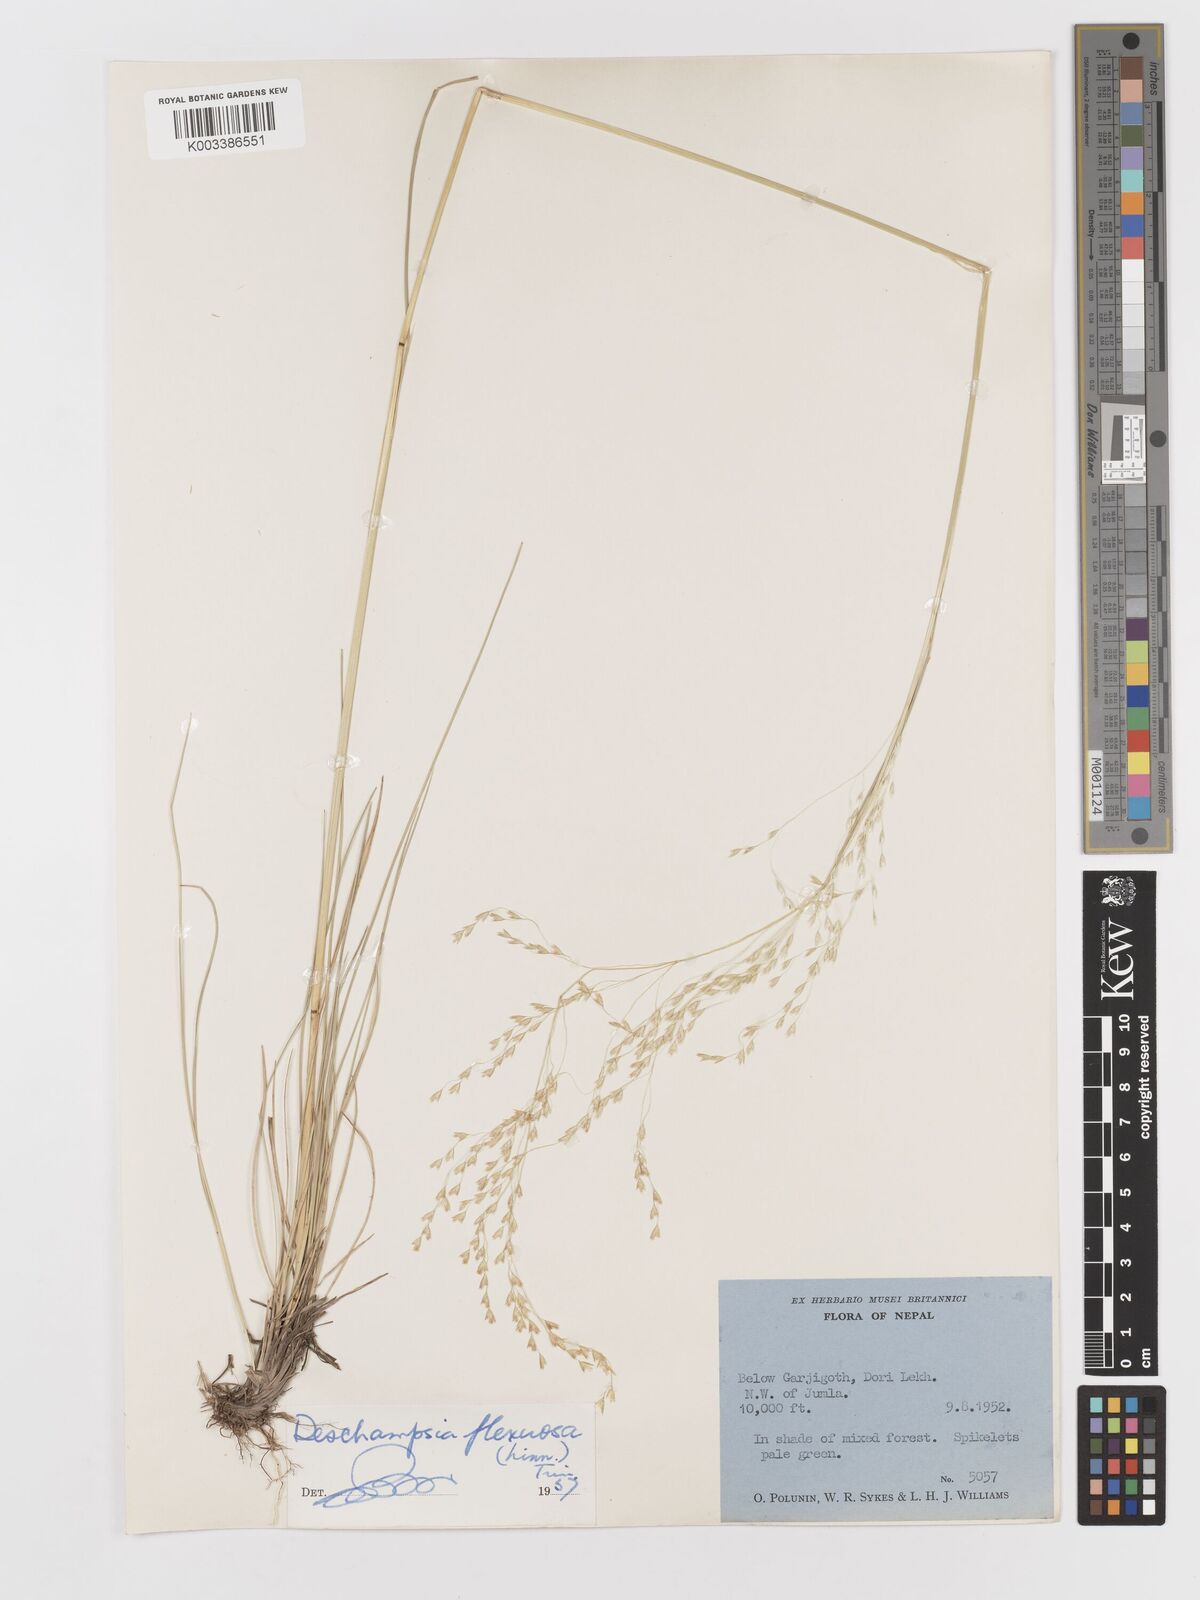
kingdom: Plantae
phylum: Tracheophyta
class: Liliopsida
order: Poales
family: Poaceae
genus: Avenella
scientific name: Avenella flexuosa
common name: Wavy hairgrass
